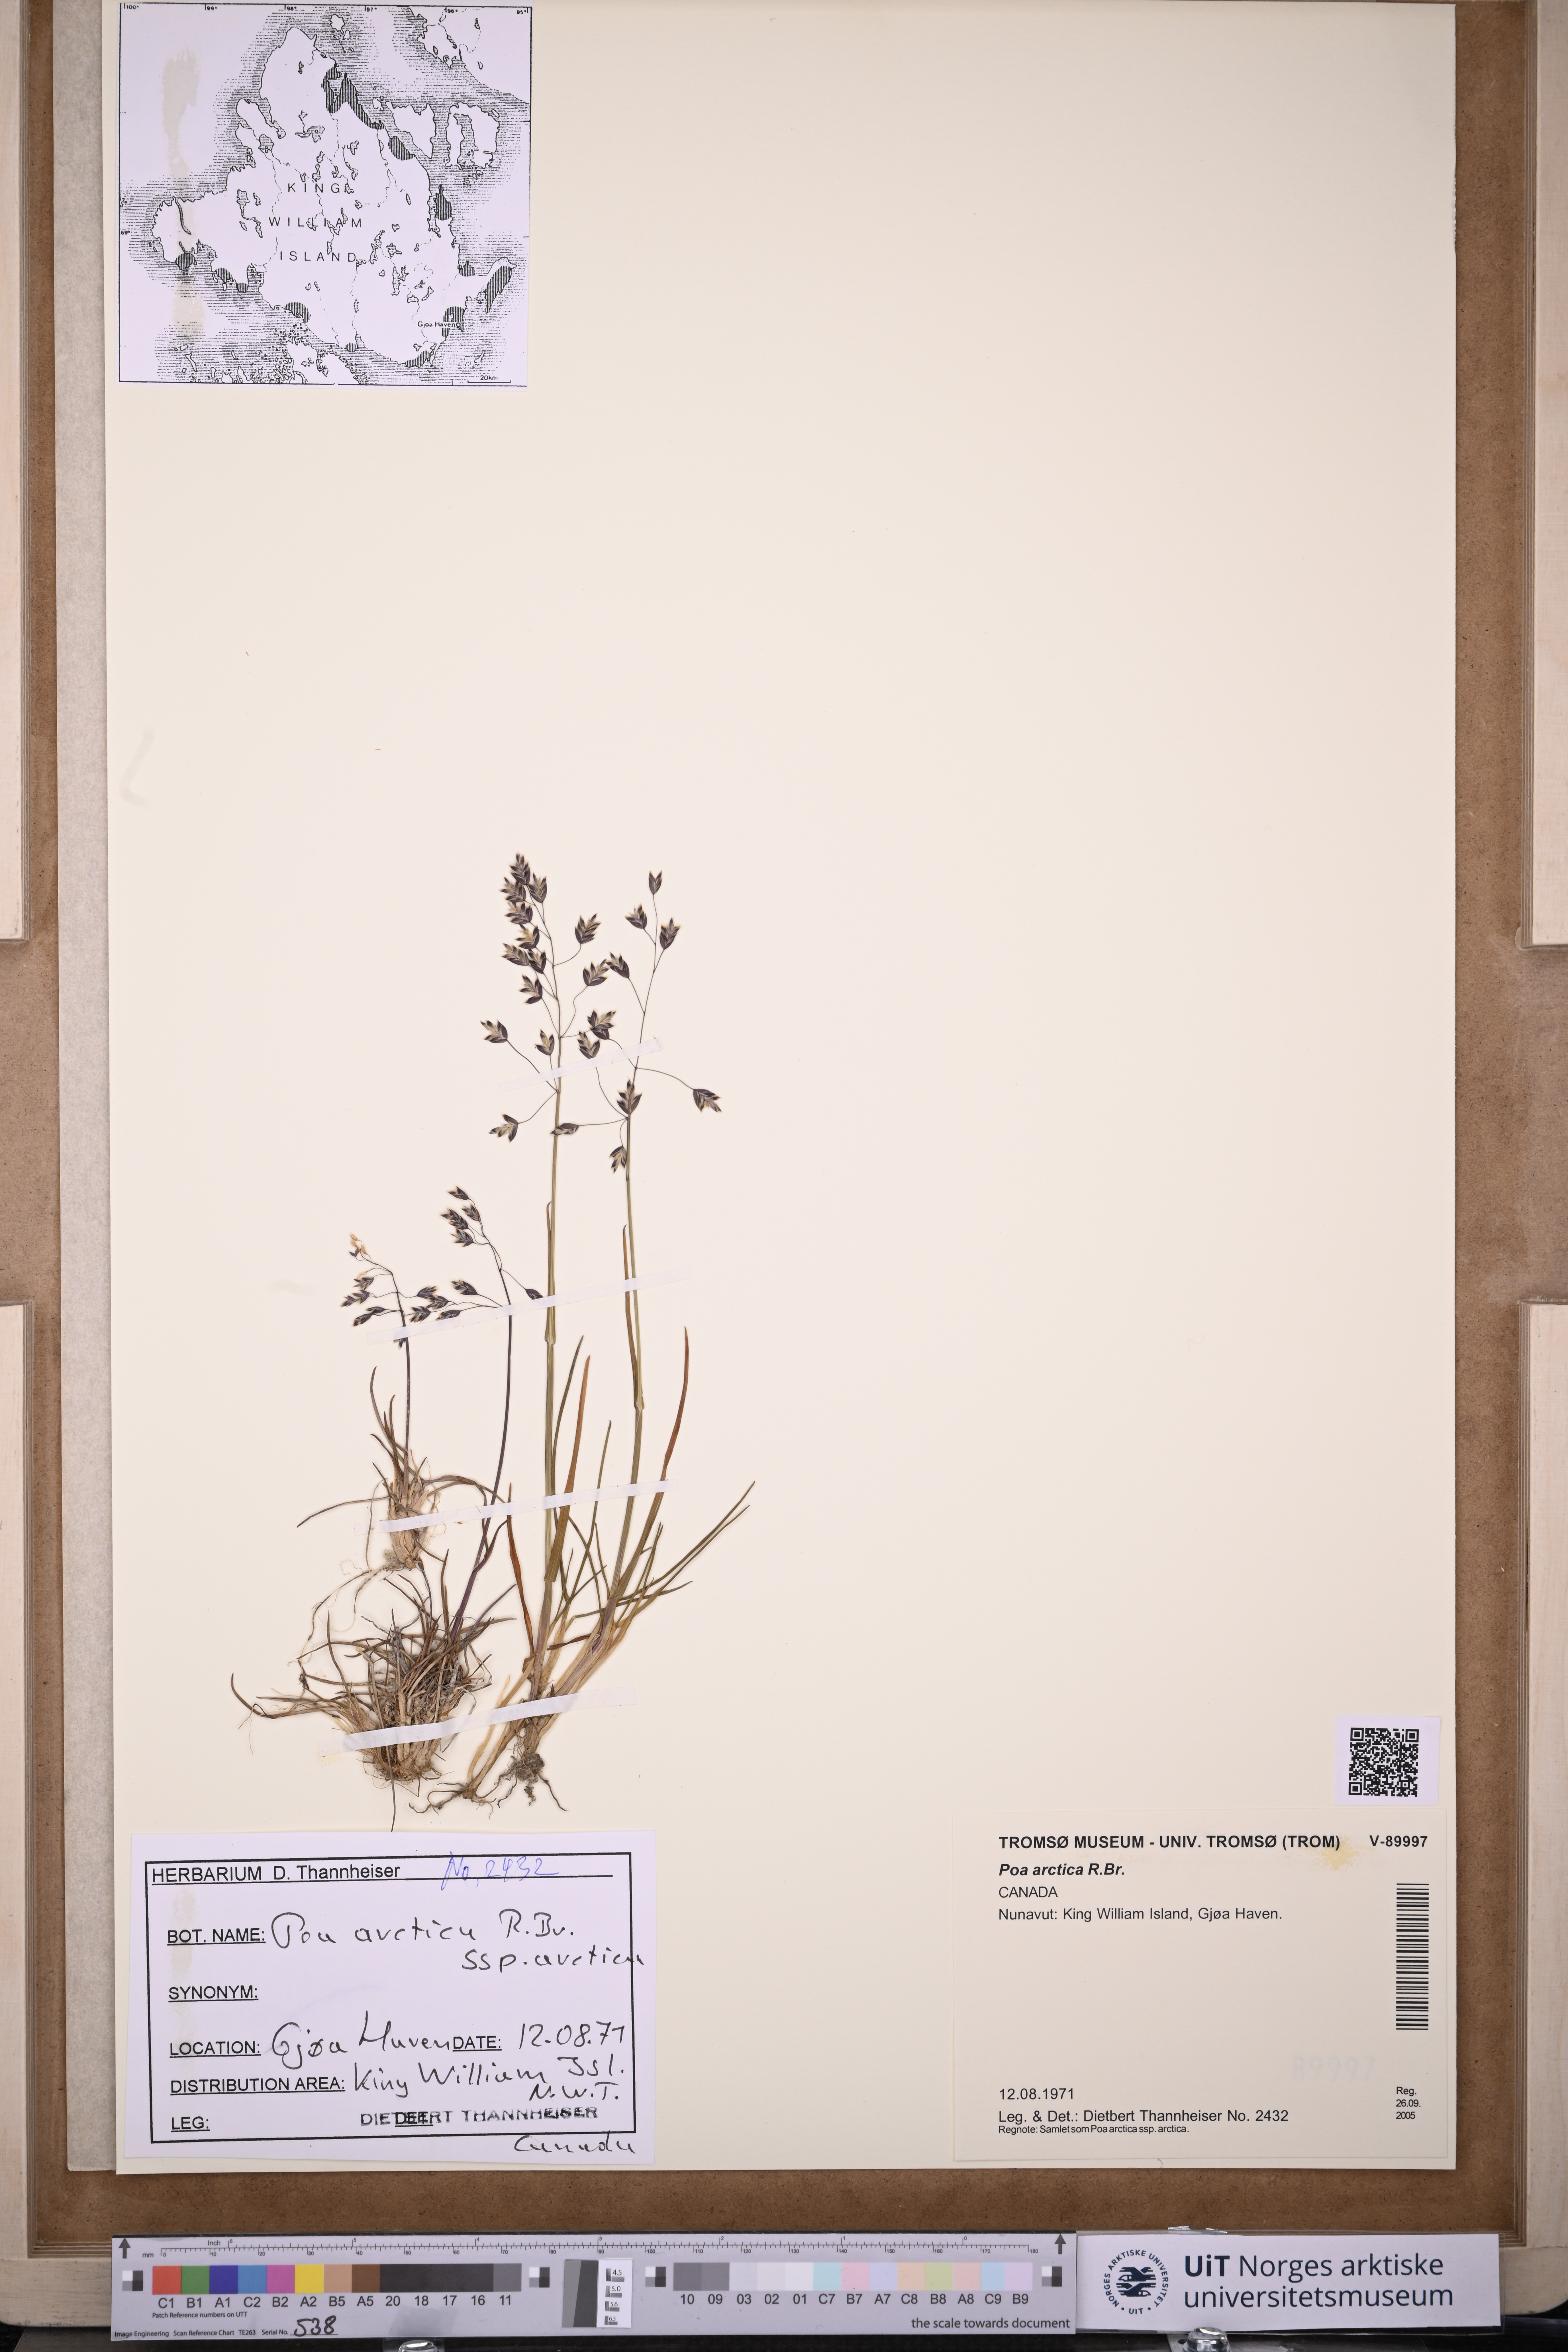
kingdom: Plantae
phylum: Tracheophyta
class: Liliopsida
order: Poales
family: Poaceae
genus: Poa
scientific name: Poa arctica
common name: Arctic bluegrass
